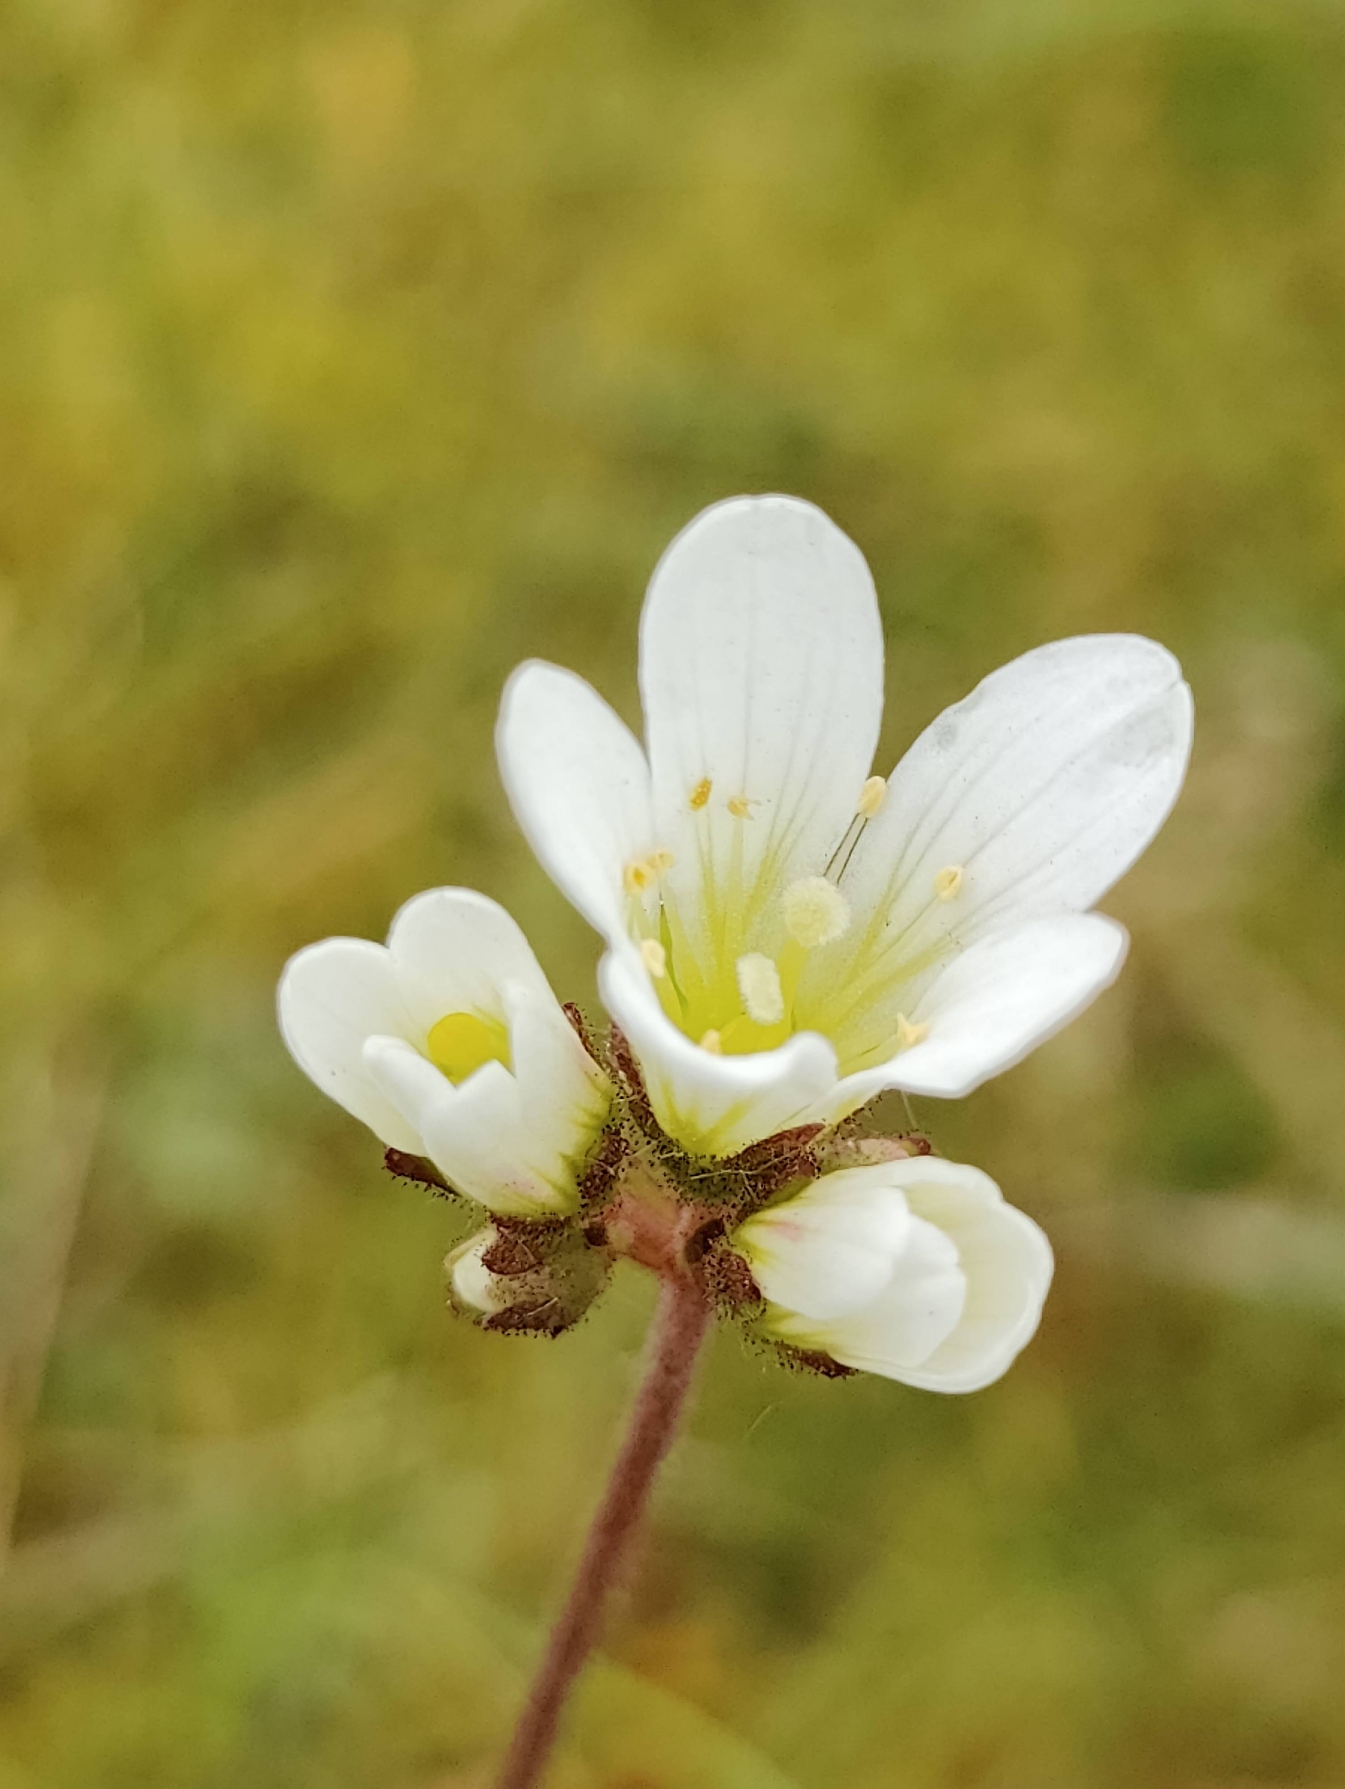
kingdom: Plantae
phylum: Tracheophyta
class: Magnoliopsida
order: Saxifragales
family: Saxifragaceae
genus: Saxifraga
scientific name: Saxifraga granulata
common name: Kornet stenbræk
